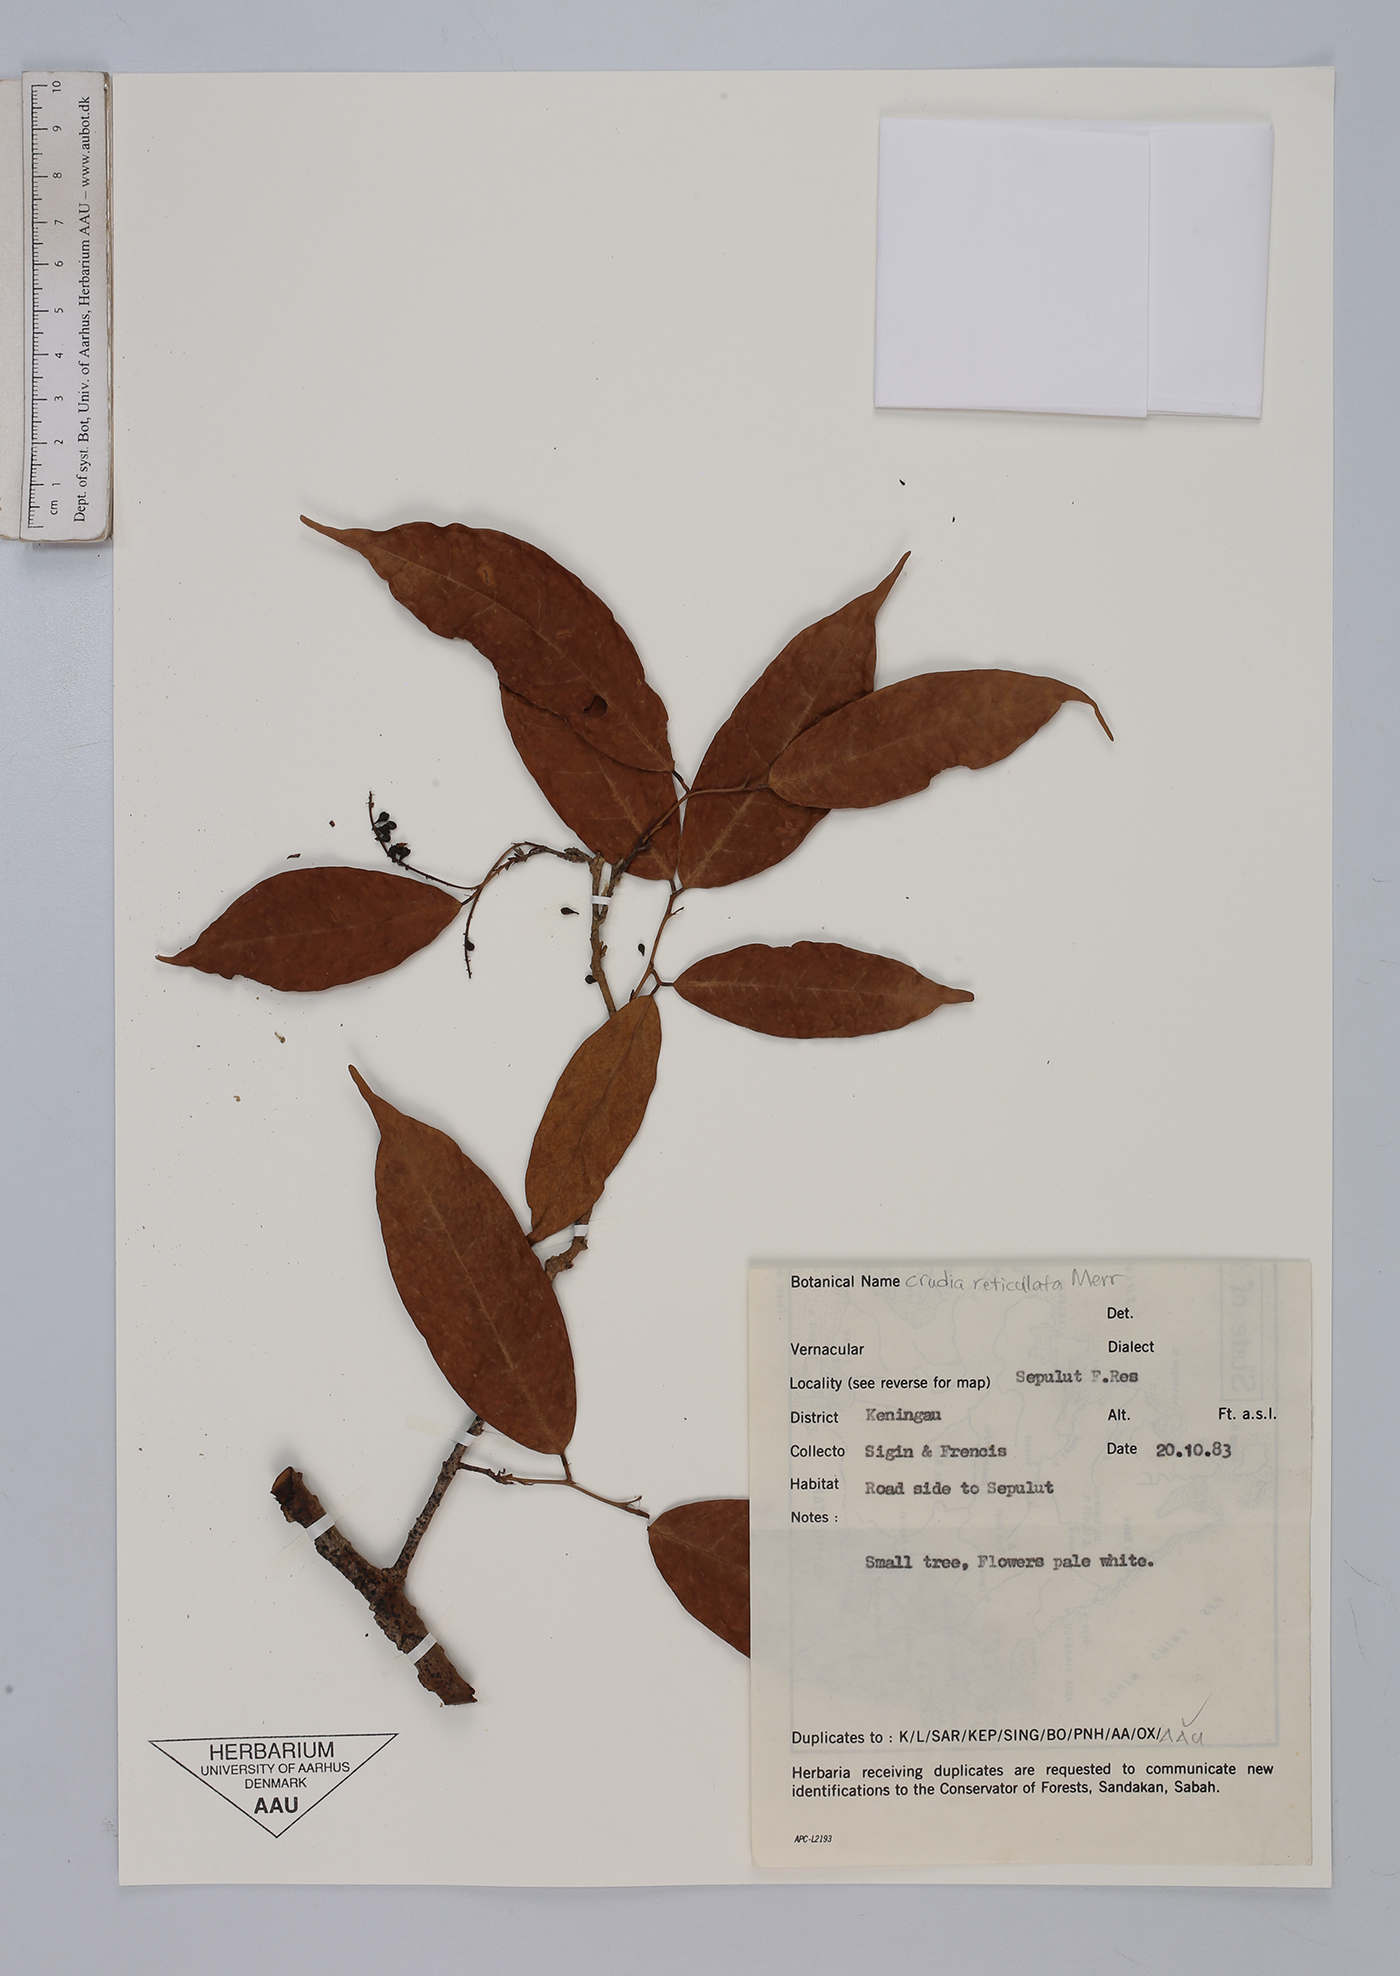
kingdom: Plantae
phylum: Tracheophyta
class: Magnoliopsida
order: Fabales
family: Fabaceae
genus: Crudia
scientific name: Crudia bantamensis
